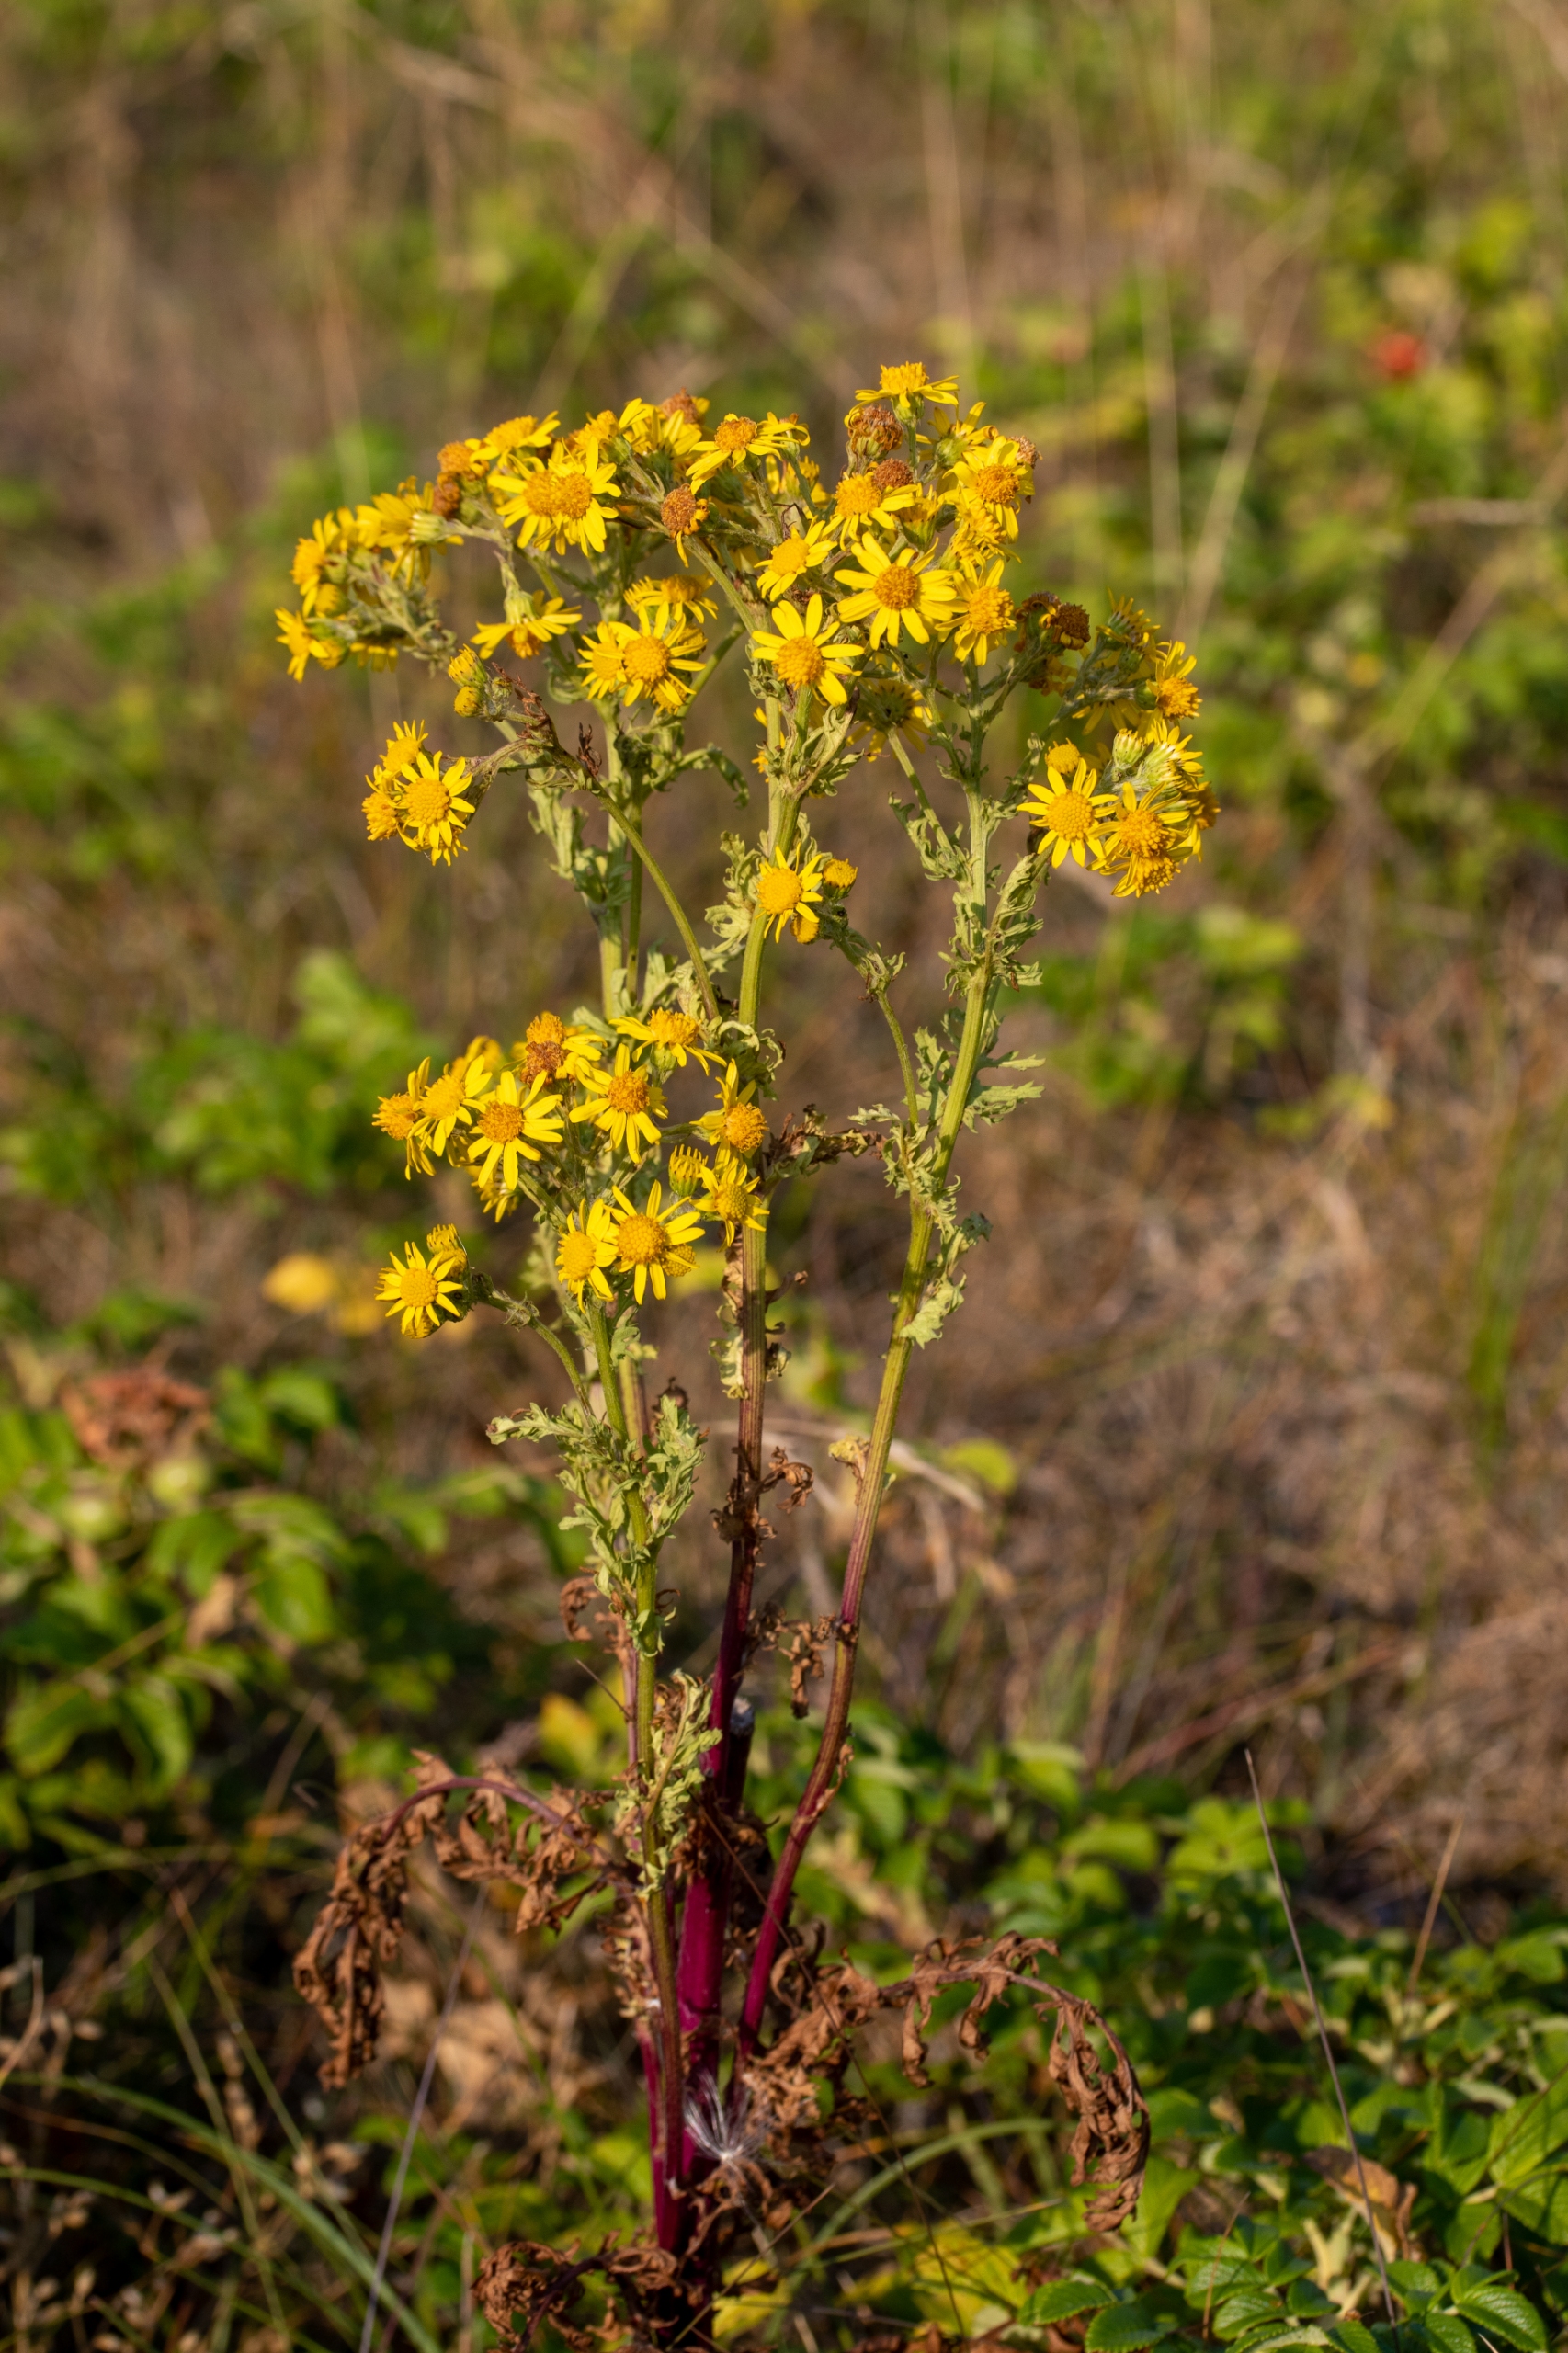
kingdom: Plantae
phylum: Tracheophyta
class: Magnoliopsida
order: Asterales
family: Asteraceae
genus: Jacobaea
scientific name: Jacobaea vulgaris
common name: Eng-brandbæger
